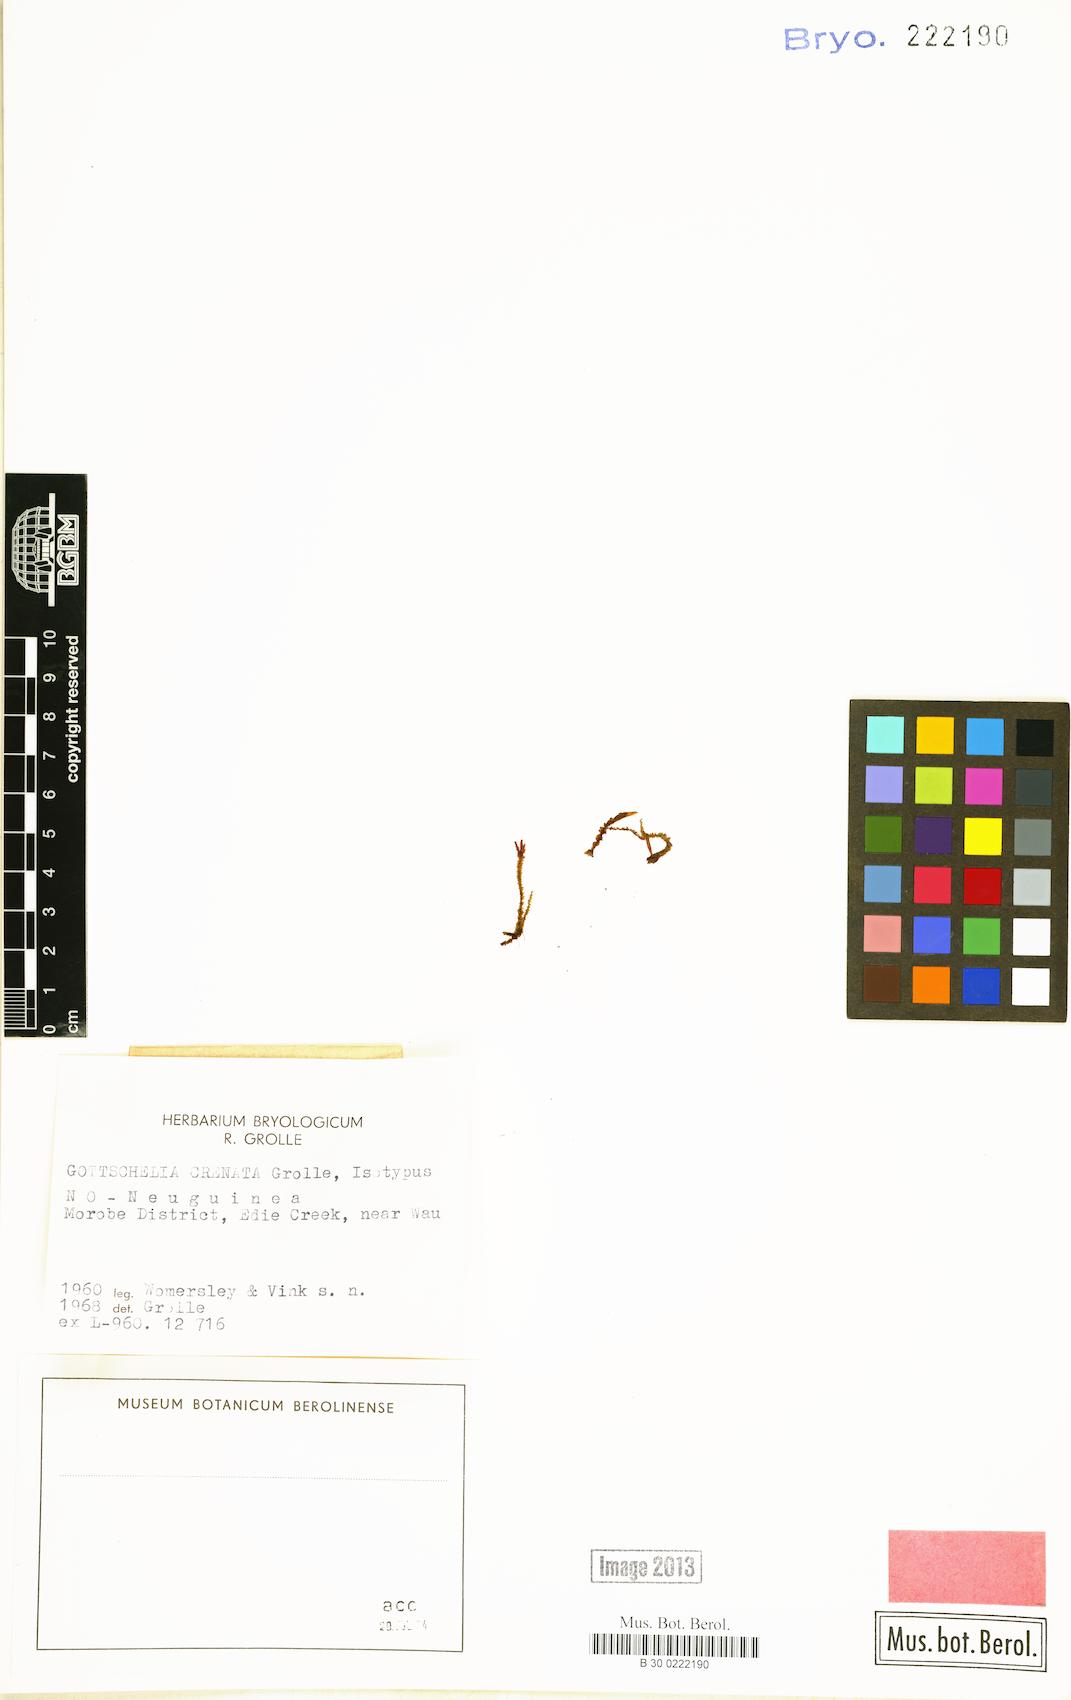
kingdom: Plantae
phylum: Marchantiophyta
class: Jungermanniopsida
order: Jungermanniales
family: Cephaloziellaceae
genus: Gottschelia
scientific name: Gottschelia maxima
